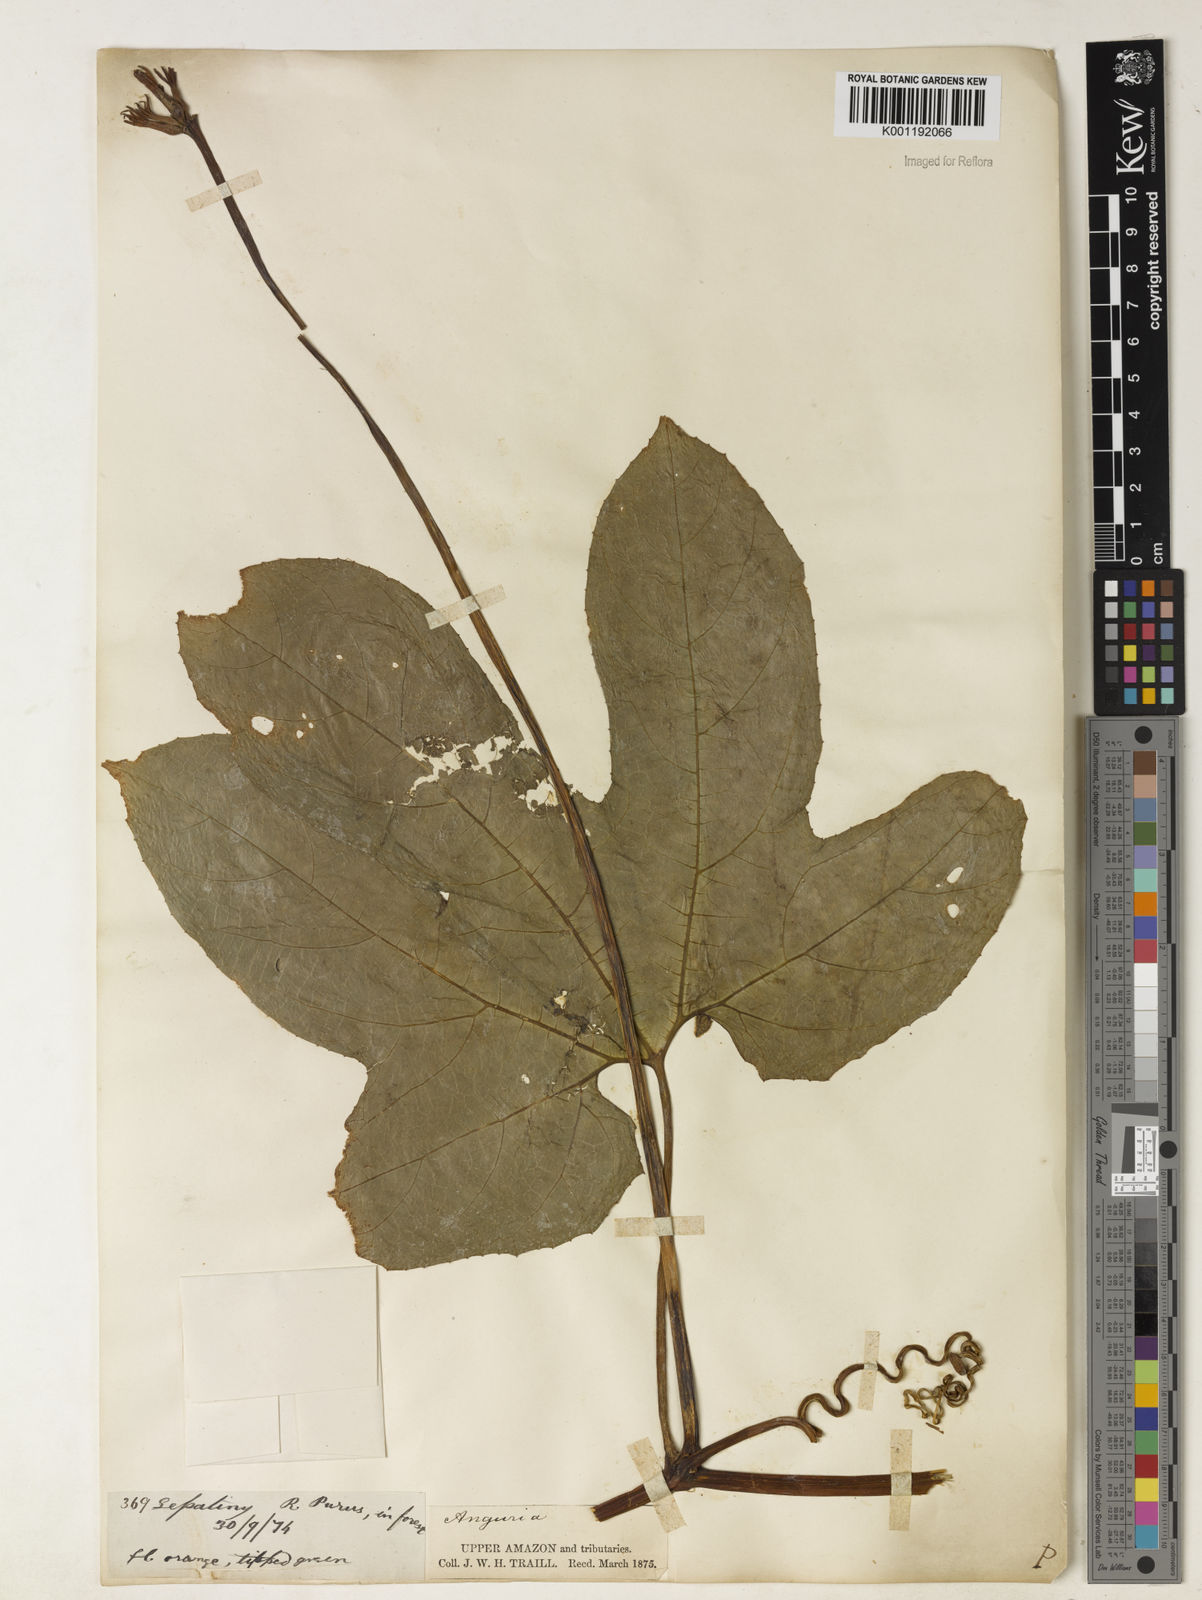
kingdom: Plantae
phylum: Tracheophyta
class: Magnoliopsida
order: Cucurbitales
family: Cucurbitaceae
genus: Gurania
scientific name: Gurania lobata
